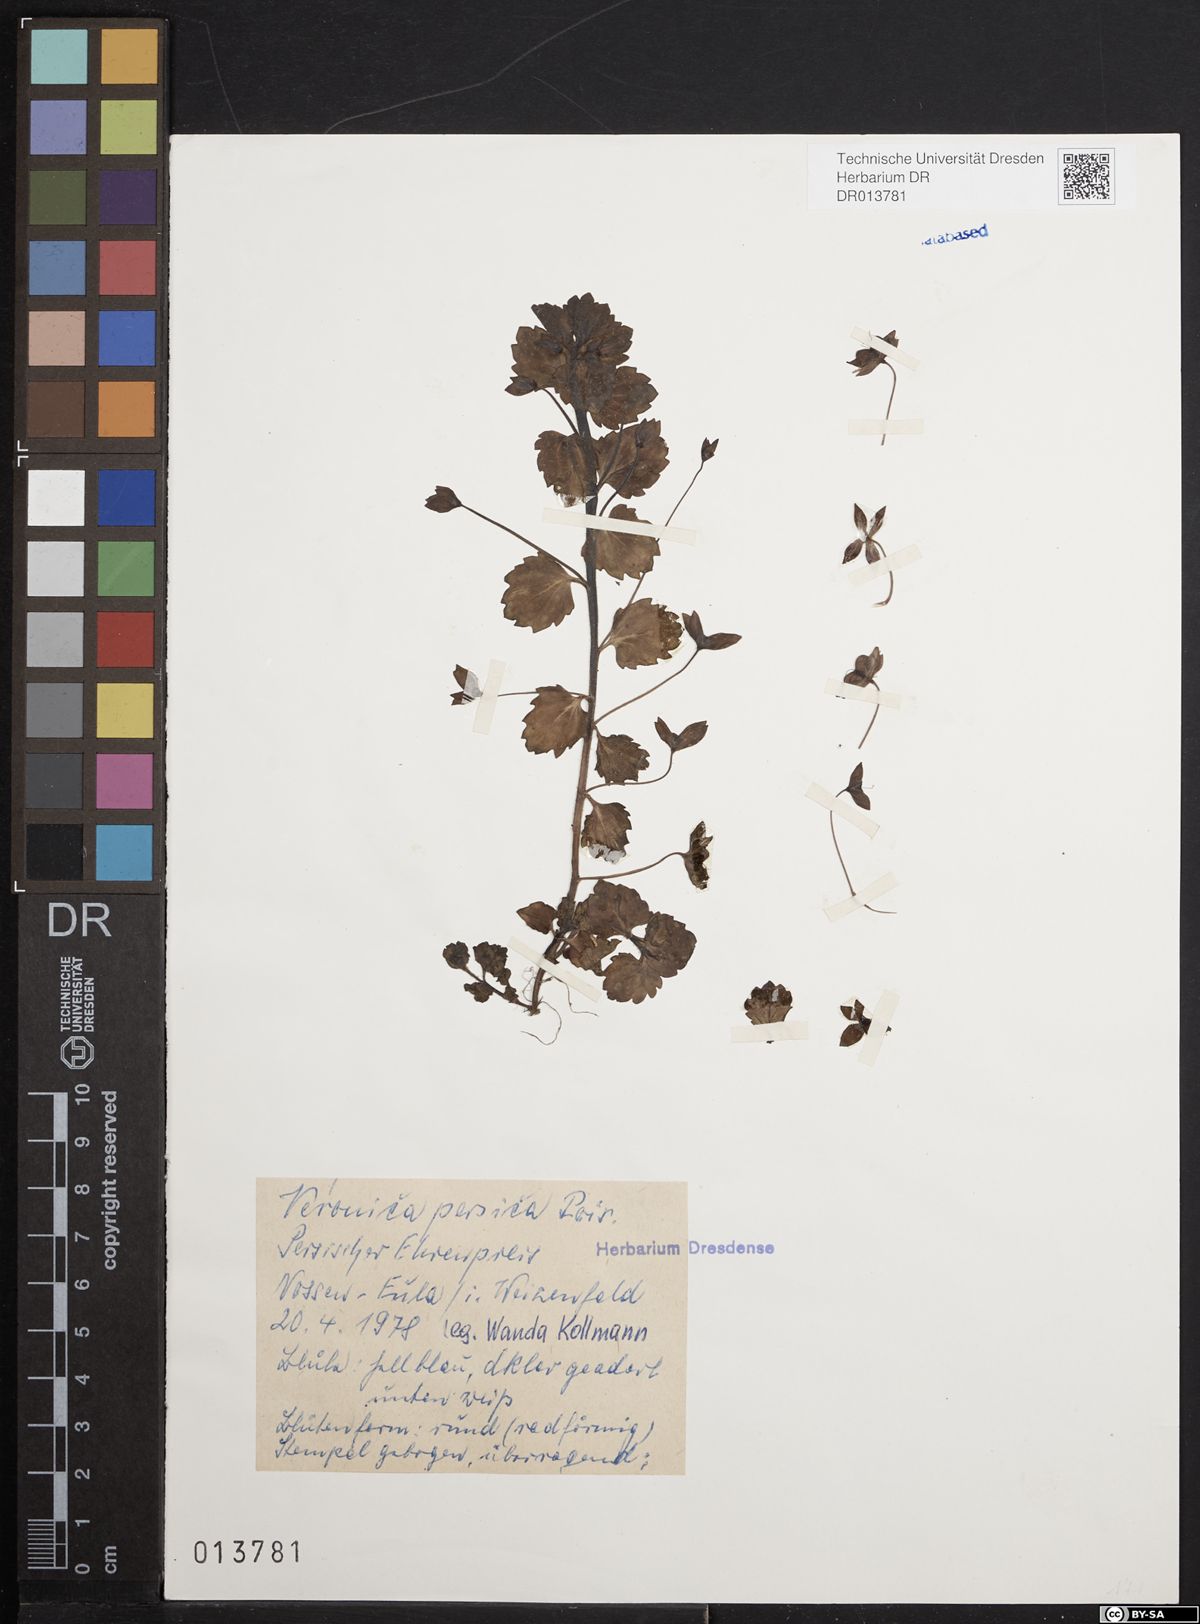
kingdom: Plantae
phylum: Tracheophyta
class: Magnoliopsida
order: Lamiales
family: Plantaginaceae
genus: Veronica
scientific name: Veronica persica
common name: Common field-speedwell
